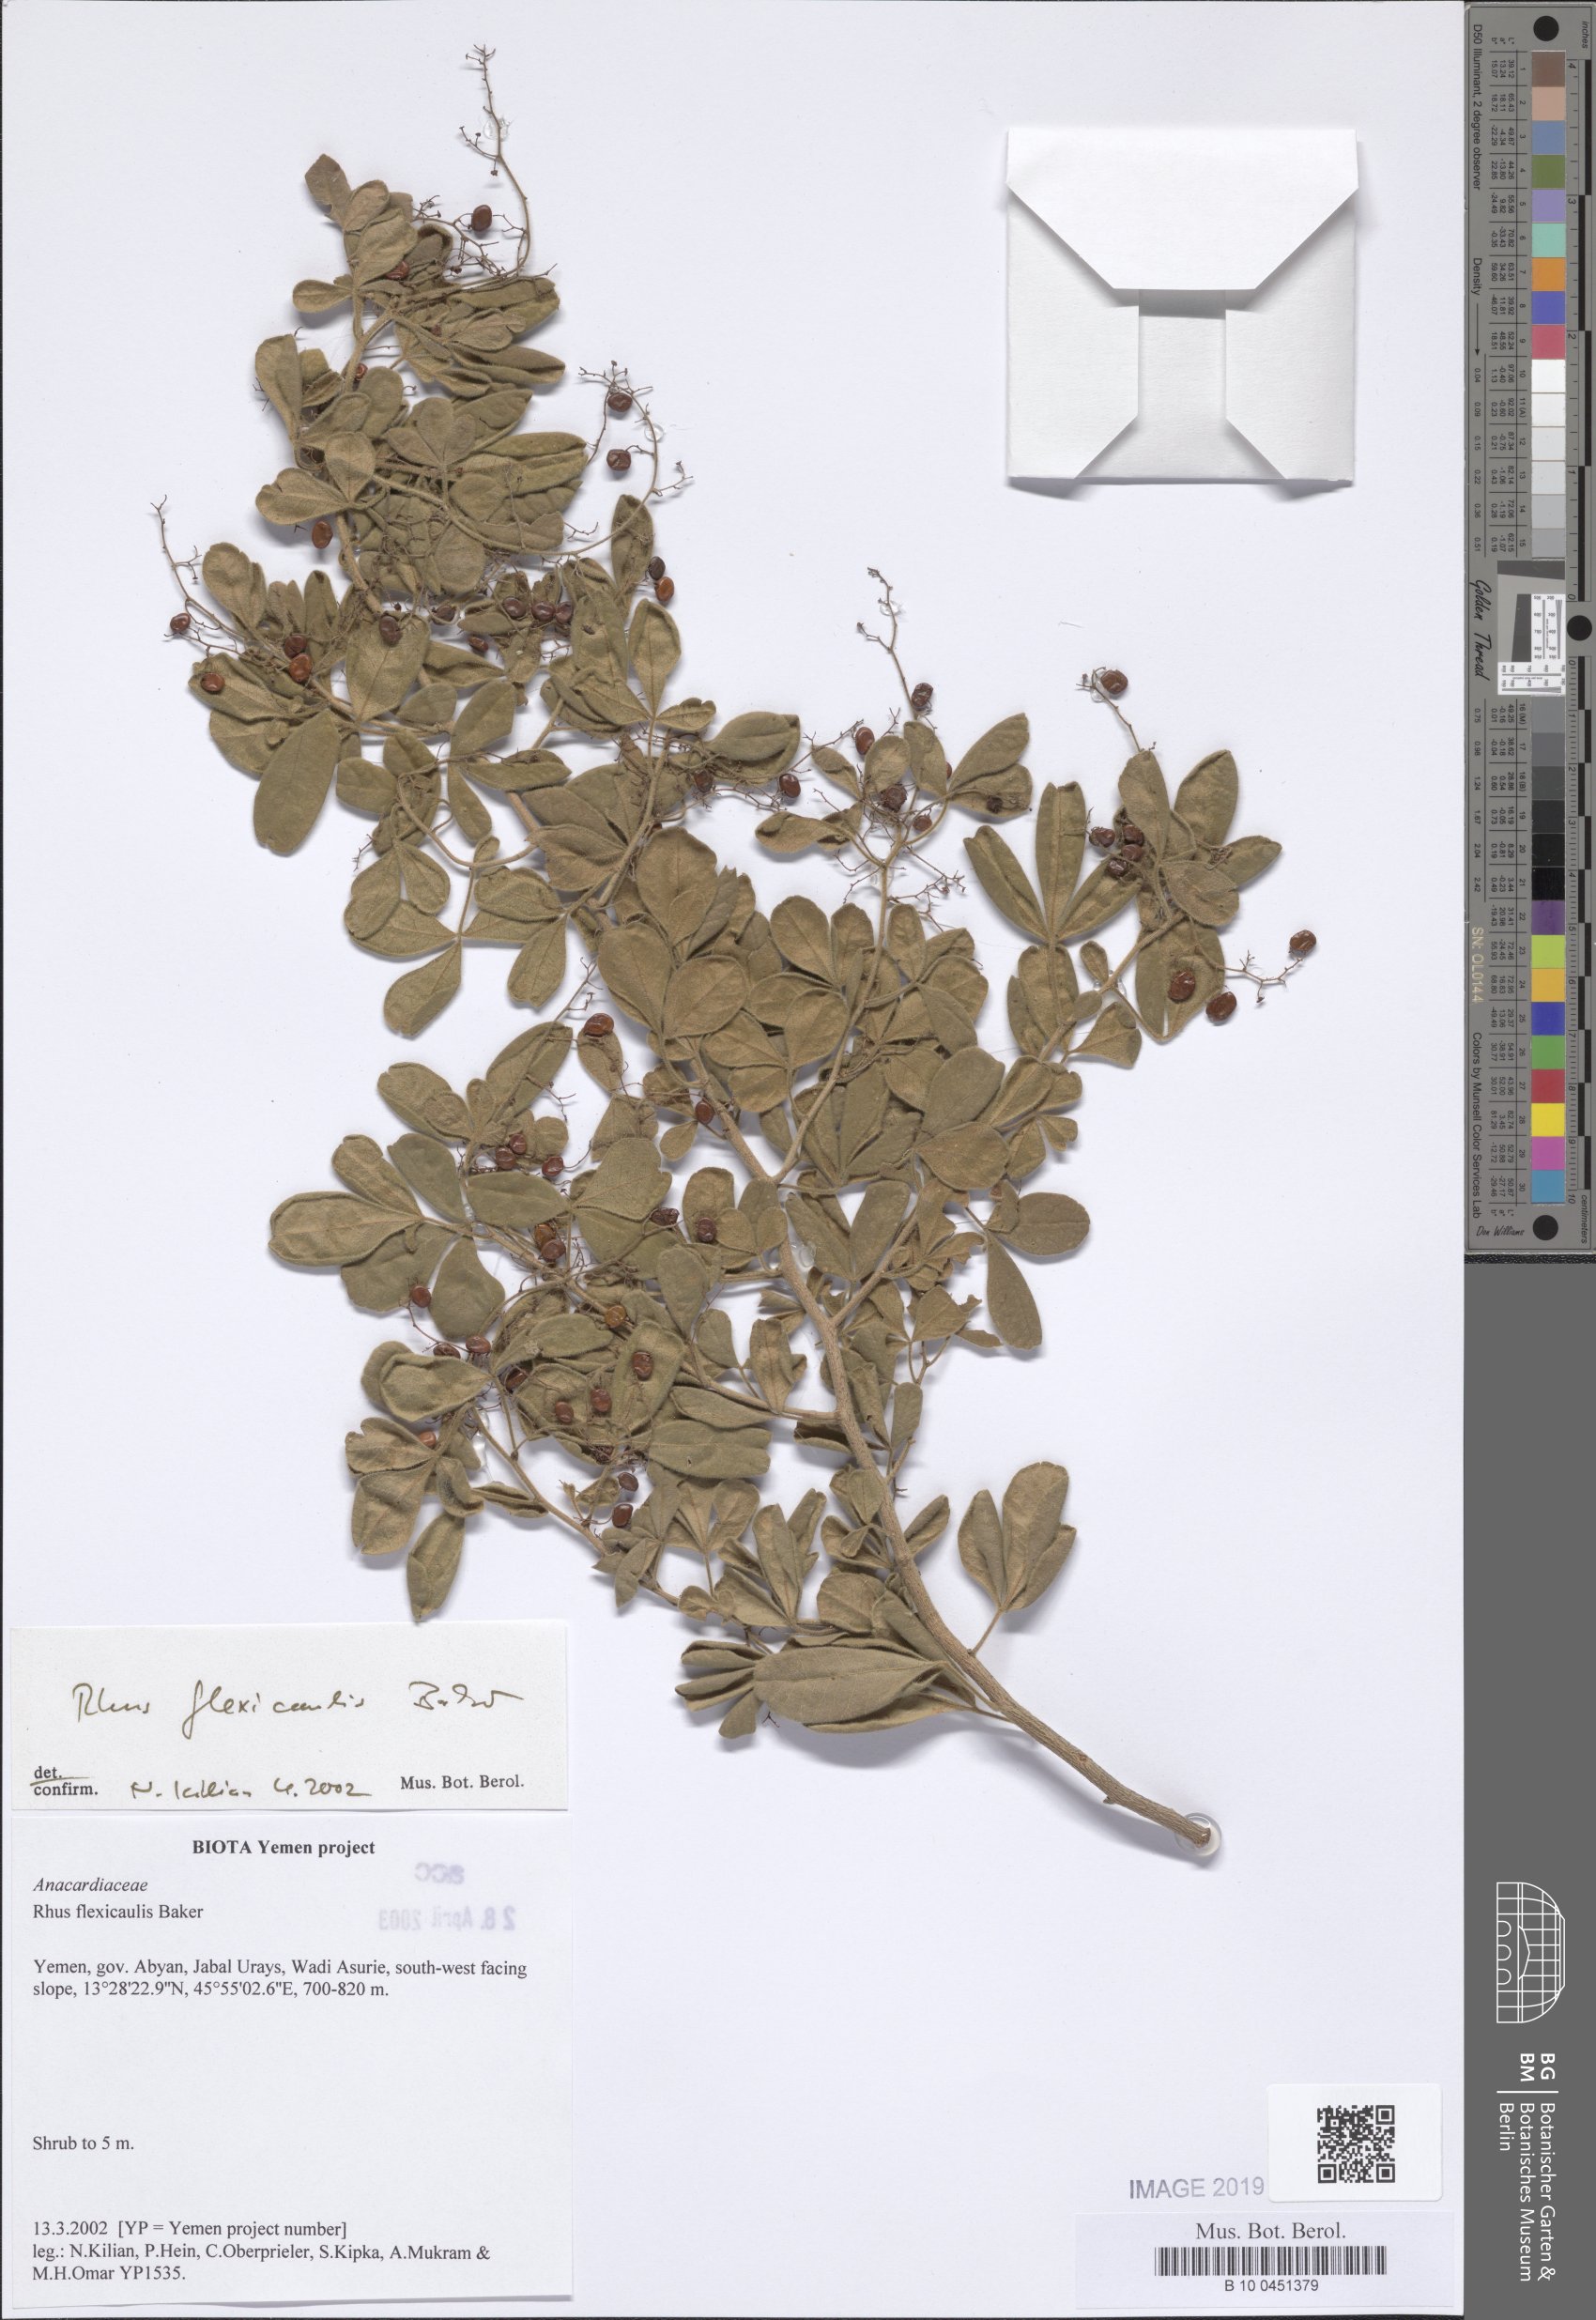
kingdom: Plantae
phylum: Tracheophyta
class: Magnoliopsida
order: Sapindales
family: Anacardiaceae
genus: Searsia
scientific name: Searsia flexicaulis
